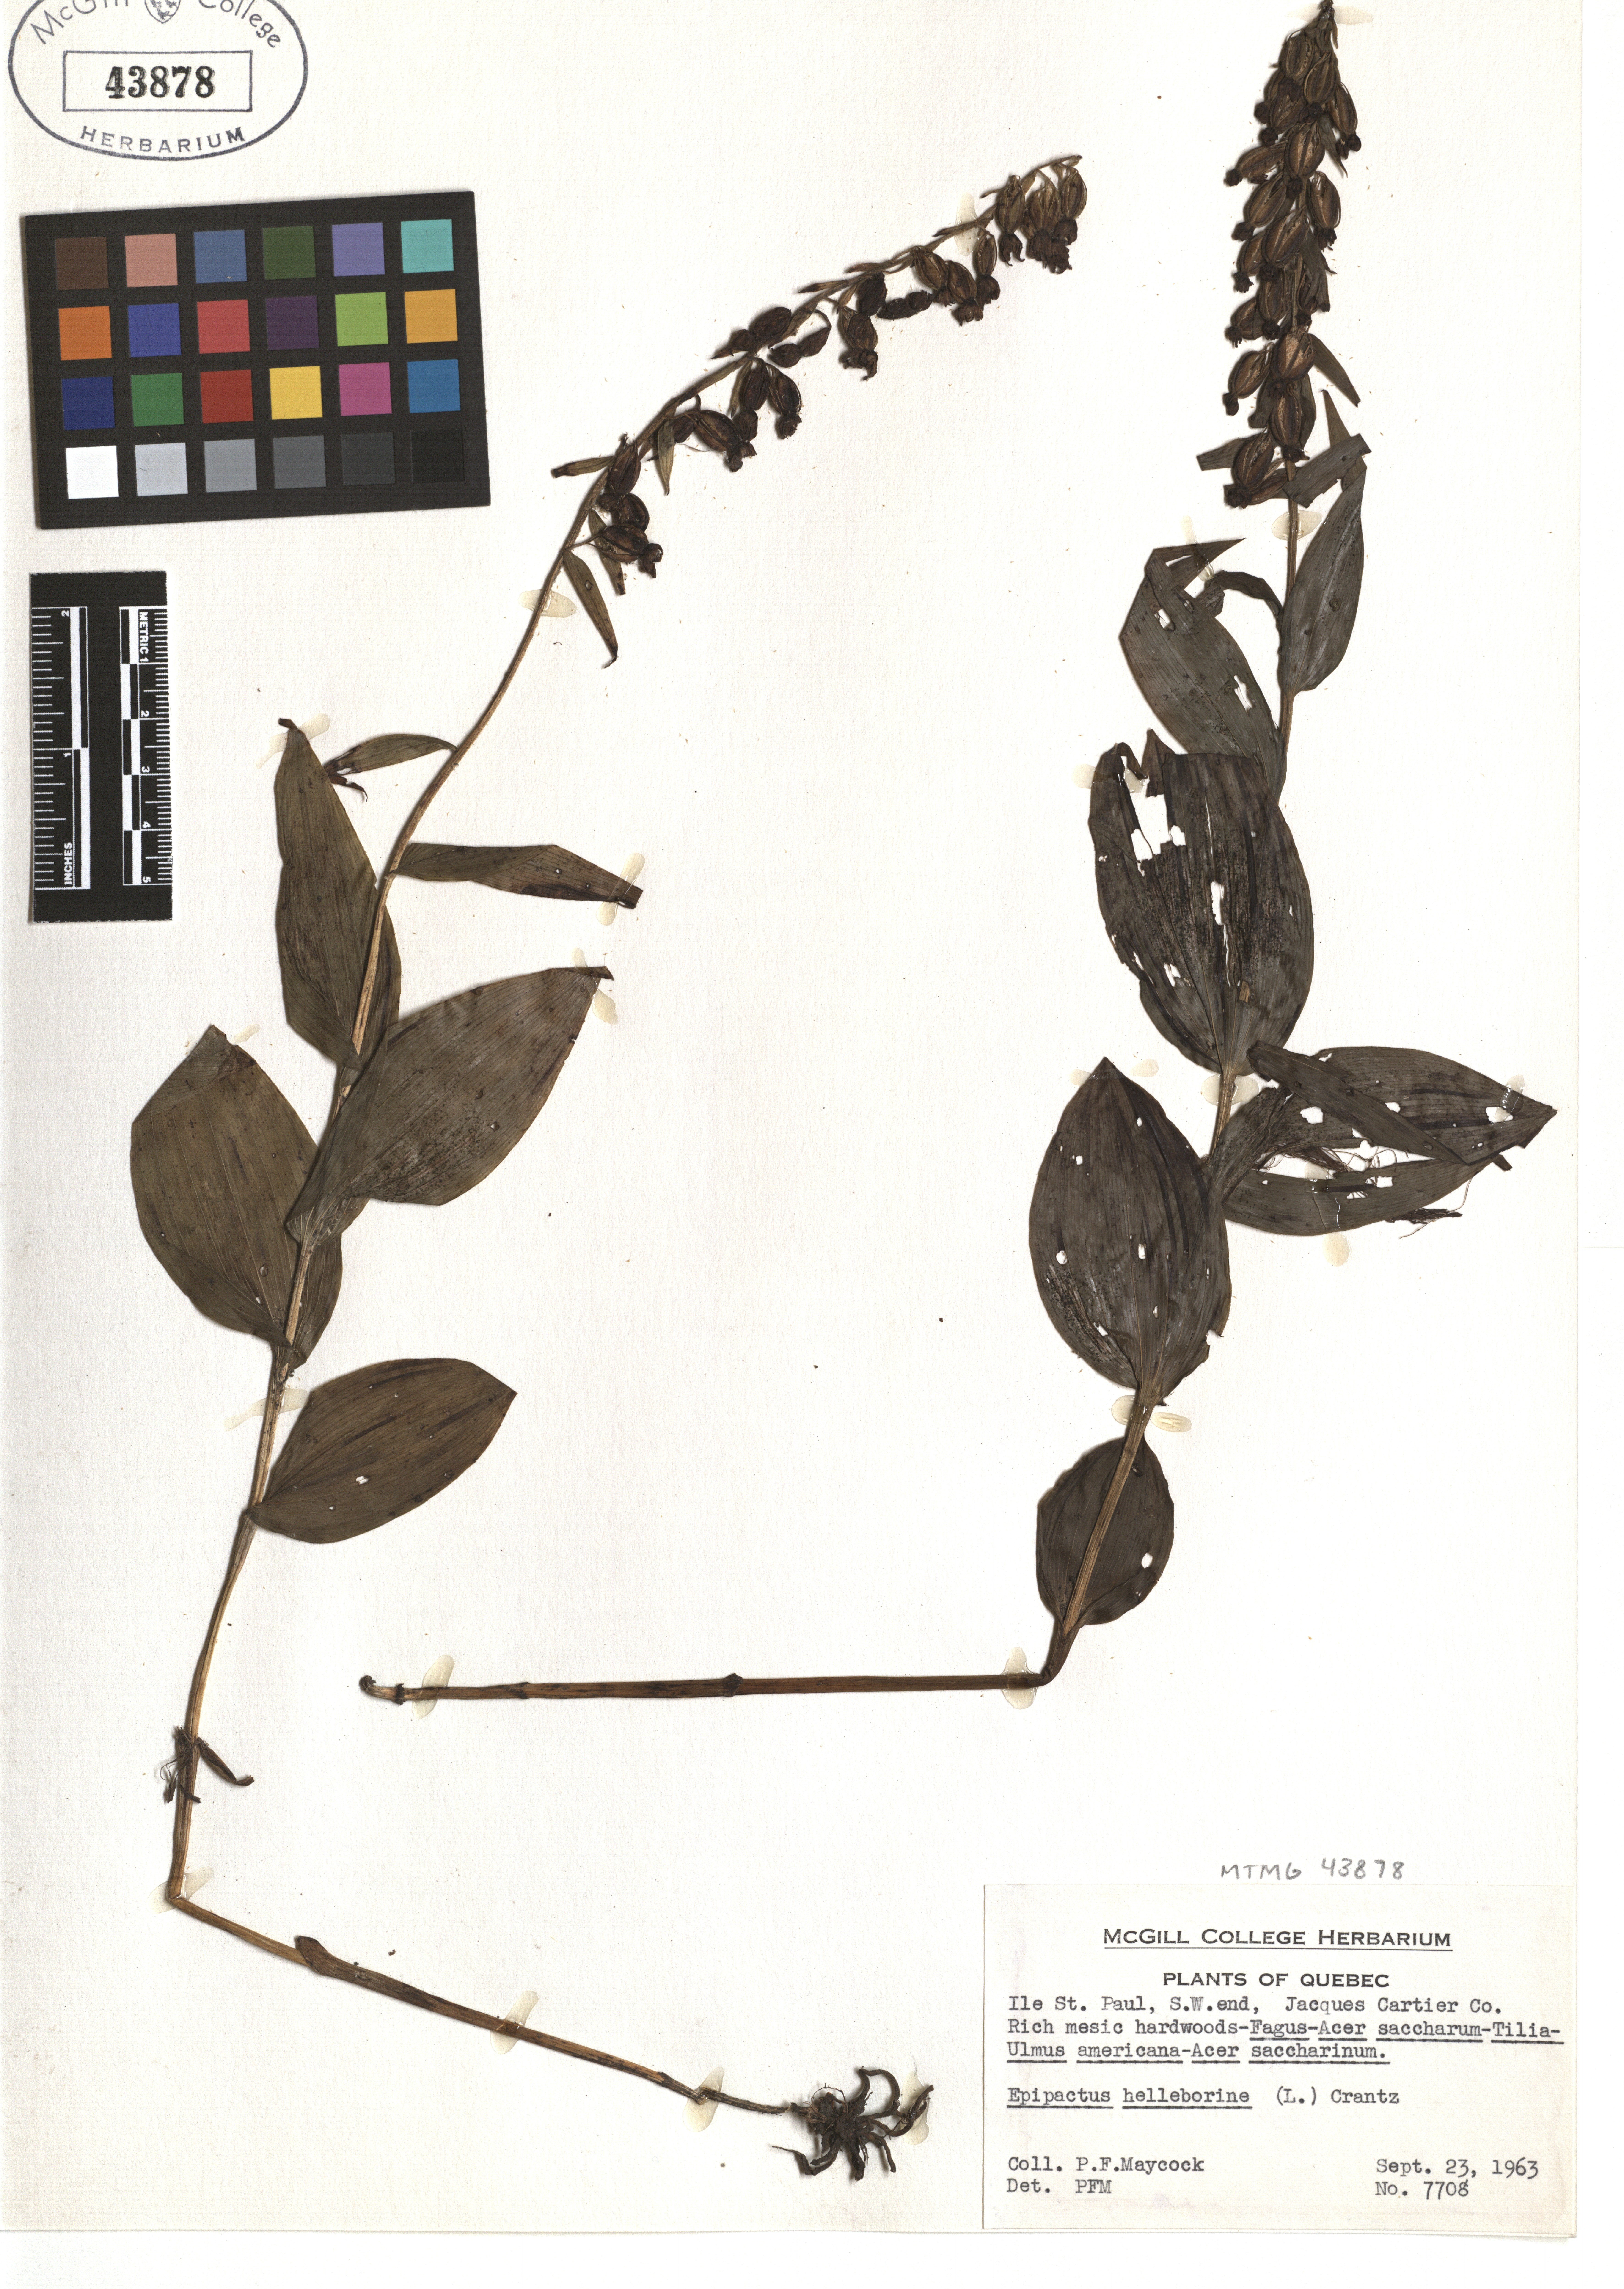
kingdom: Plantae
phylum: Tracheophyta
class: Liliopsida
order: Asparagales
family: Orchidaceae
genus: Epipactis
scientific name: Epipactis helleborine
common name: Broad-leaved helleborine
